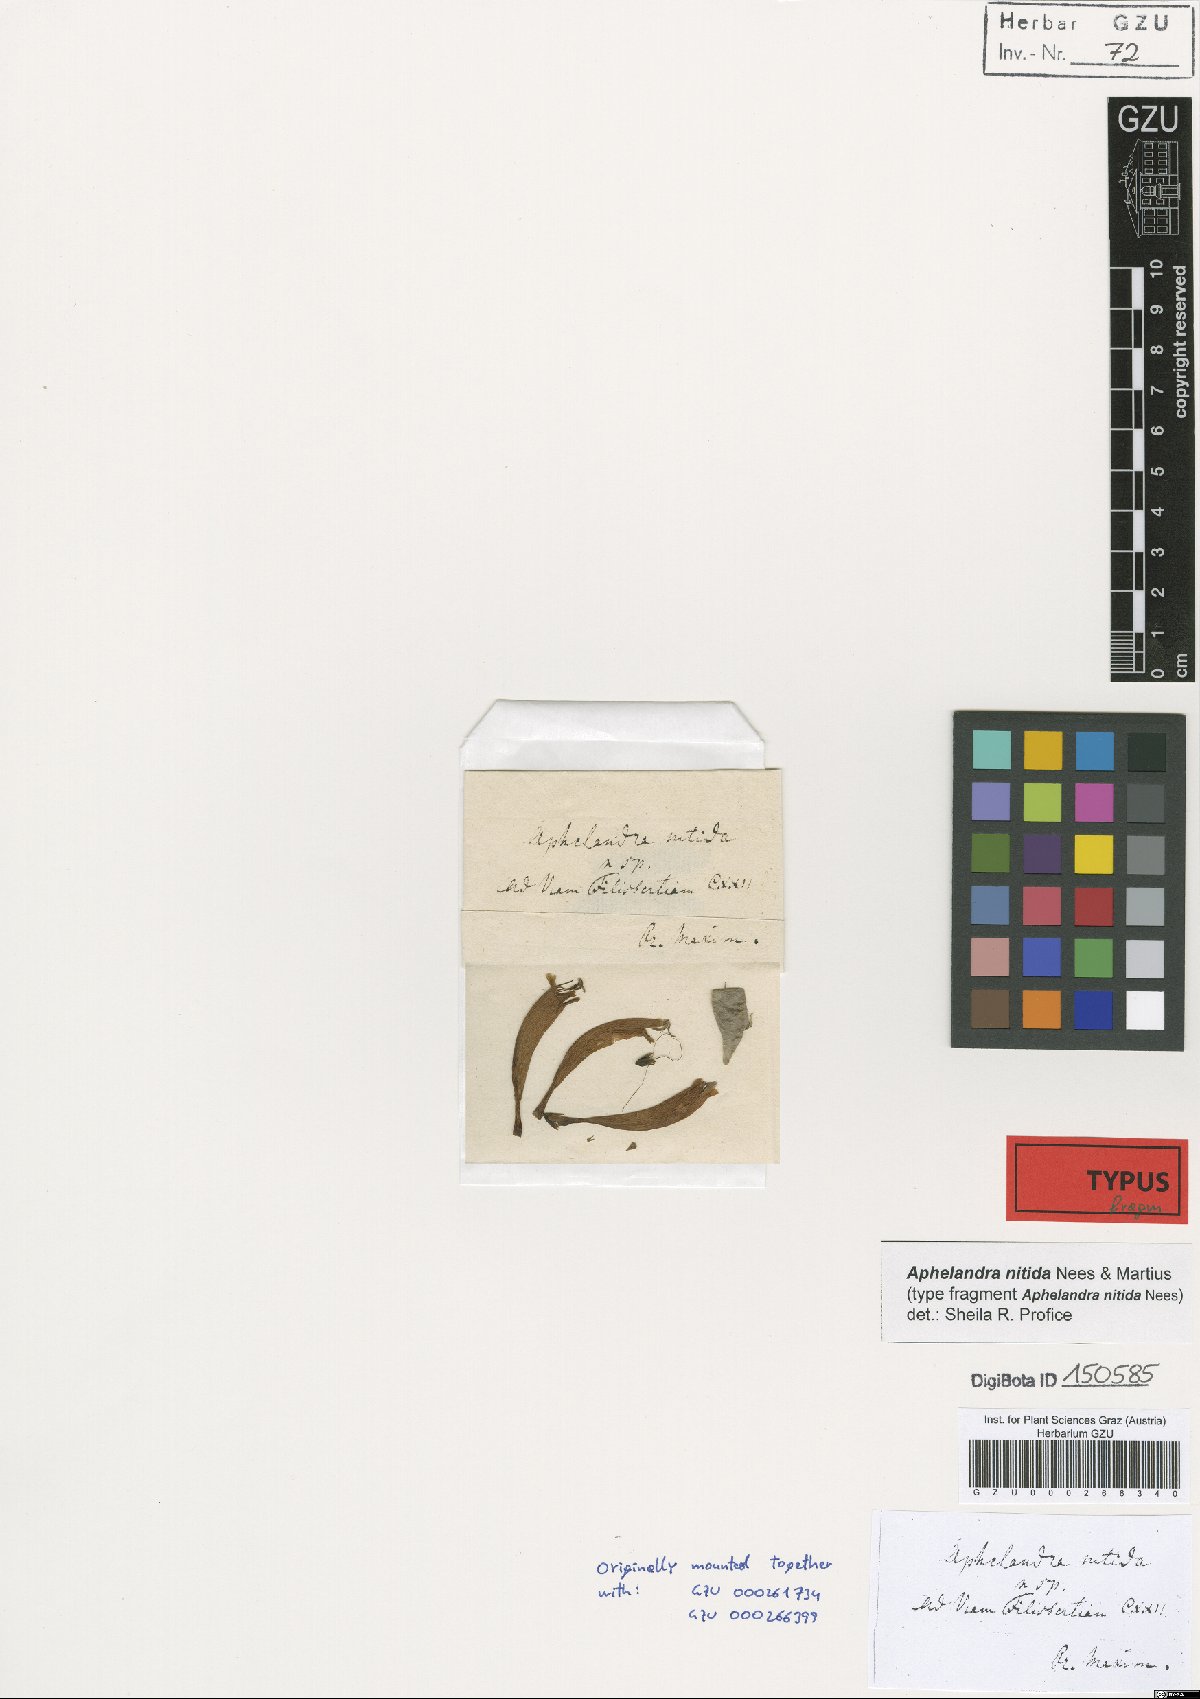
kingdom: Plantae
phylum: Tracheophyta
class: Magnoliopsida
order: Lamiales
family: Acanthaceae
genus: Aphelandra
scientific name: Aphelandra nitida
